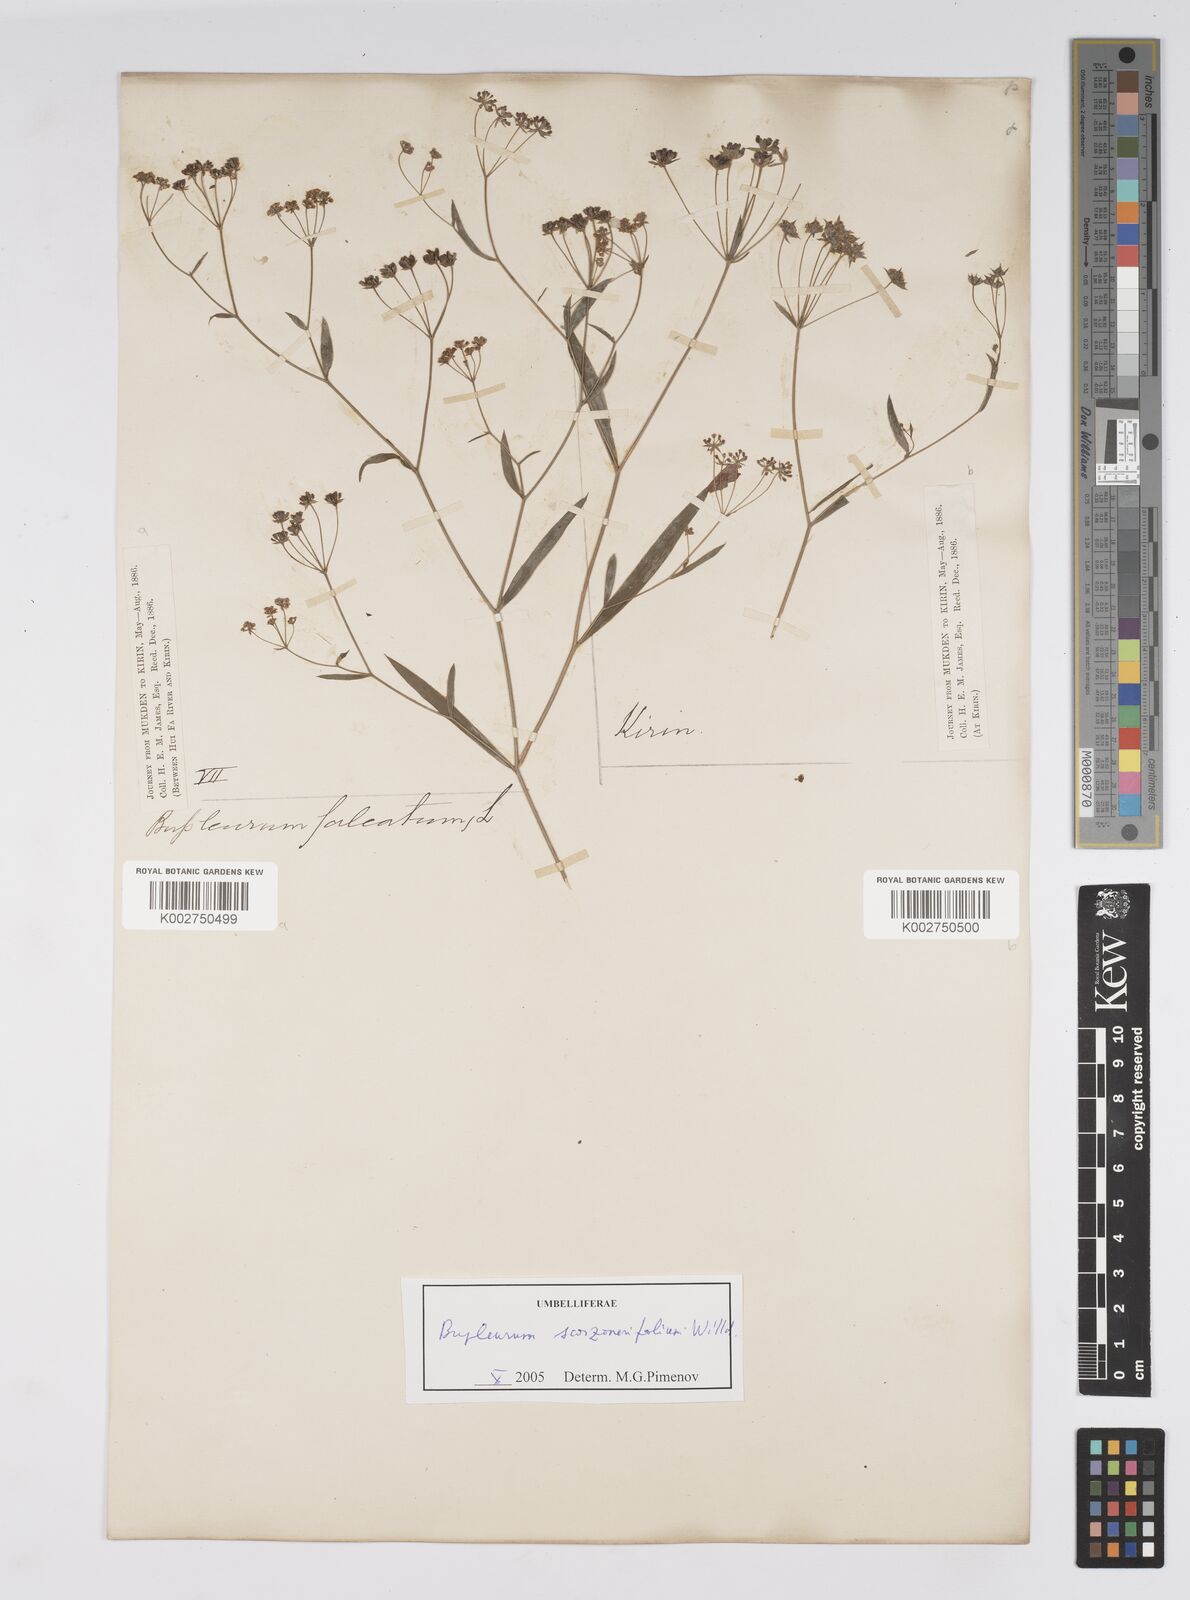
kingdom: Plantae
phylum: Tracheophyta
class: Magnoliopsida
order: Apiales
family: Apiaceae
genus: Bupleurum
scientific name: Bupleurum krylovianum
